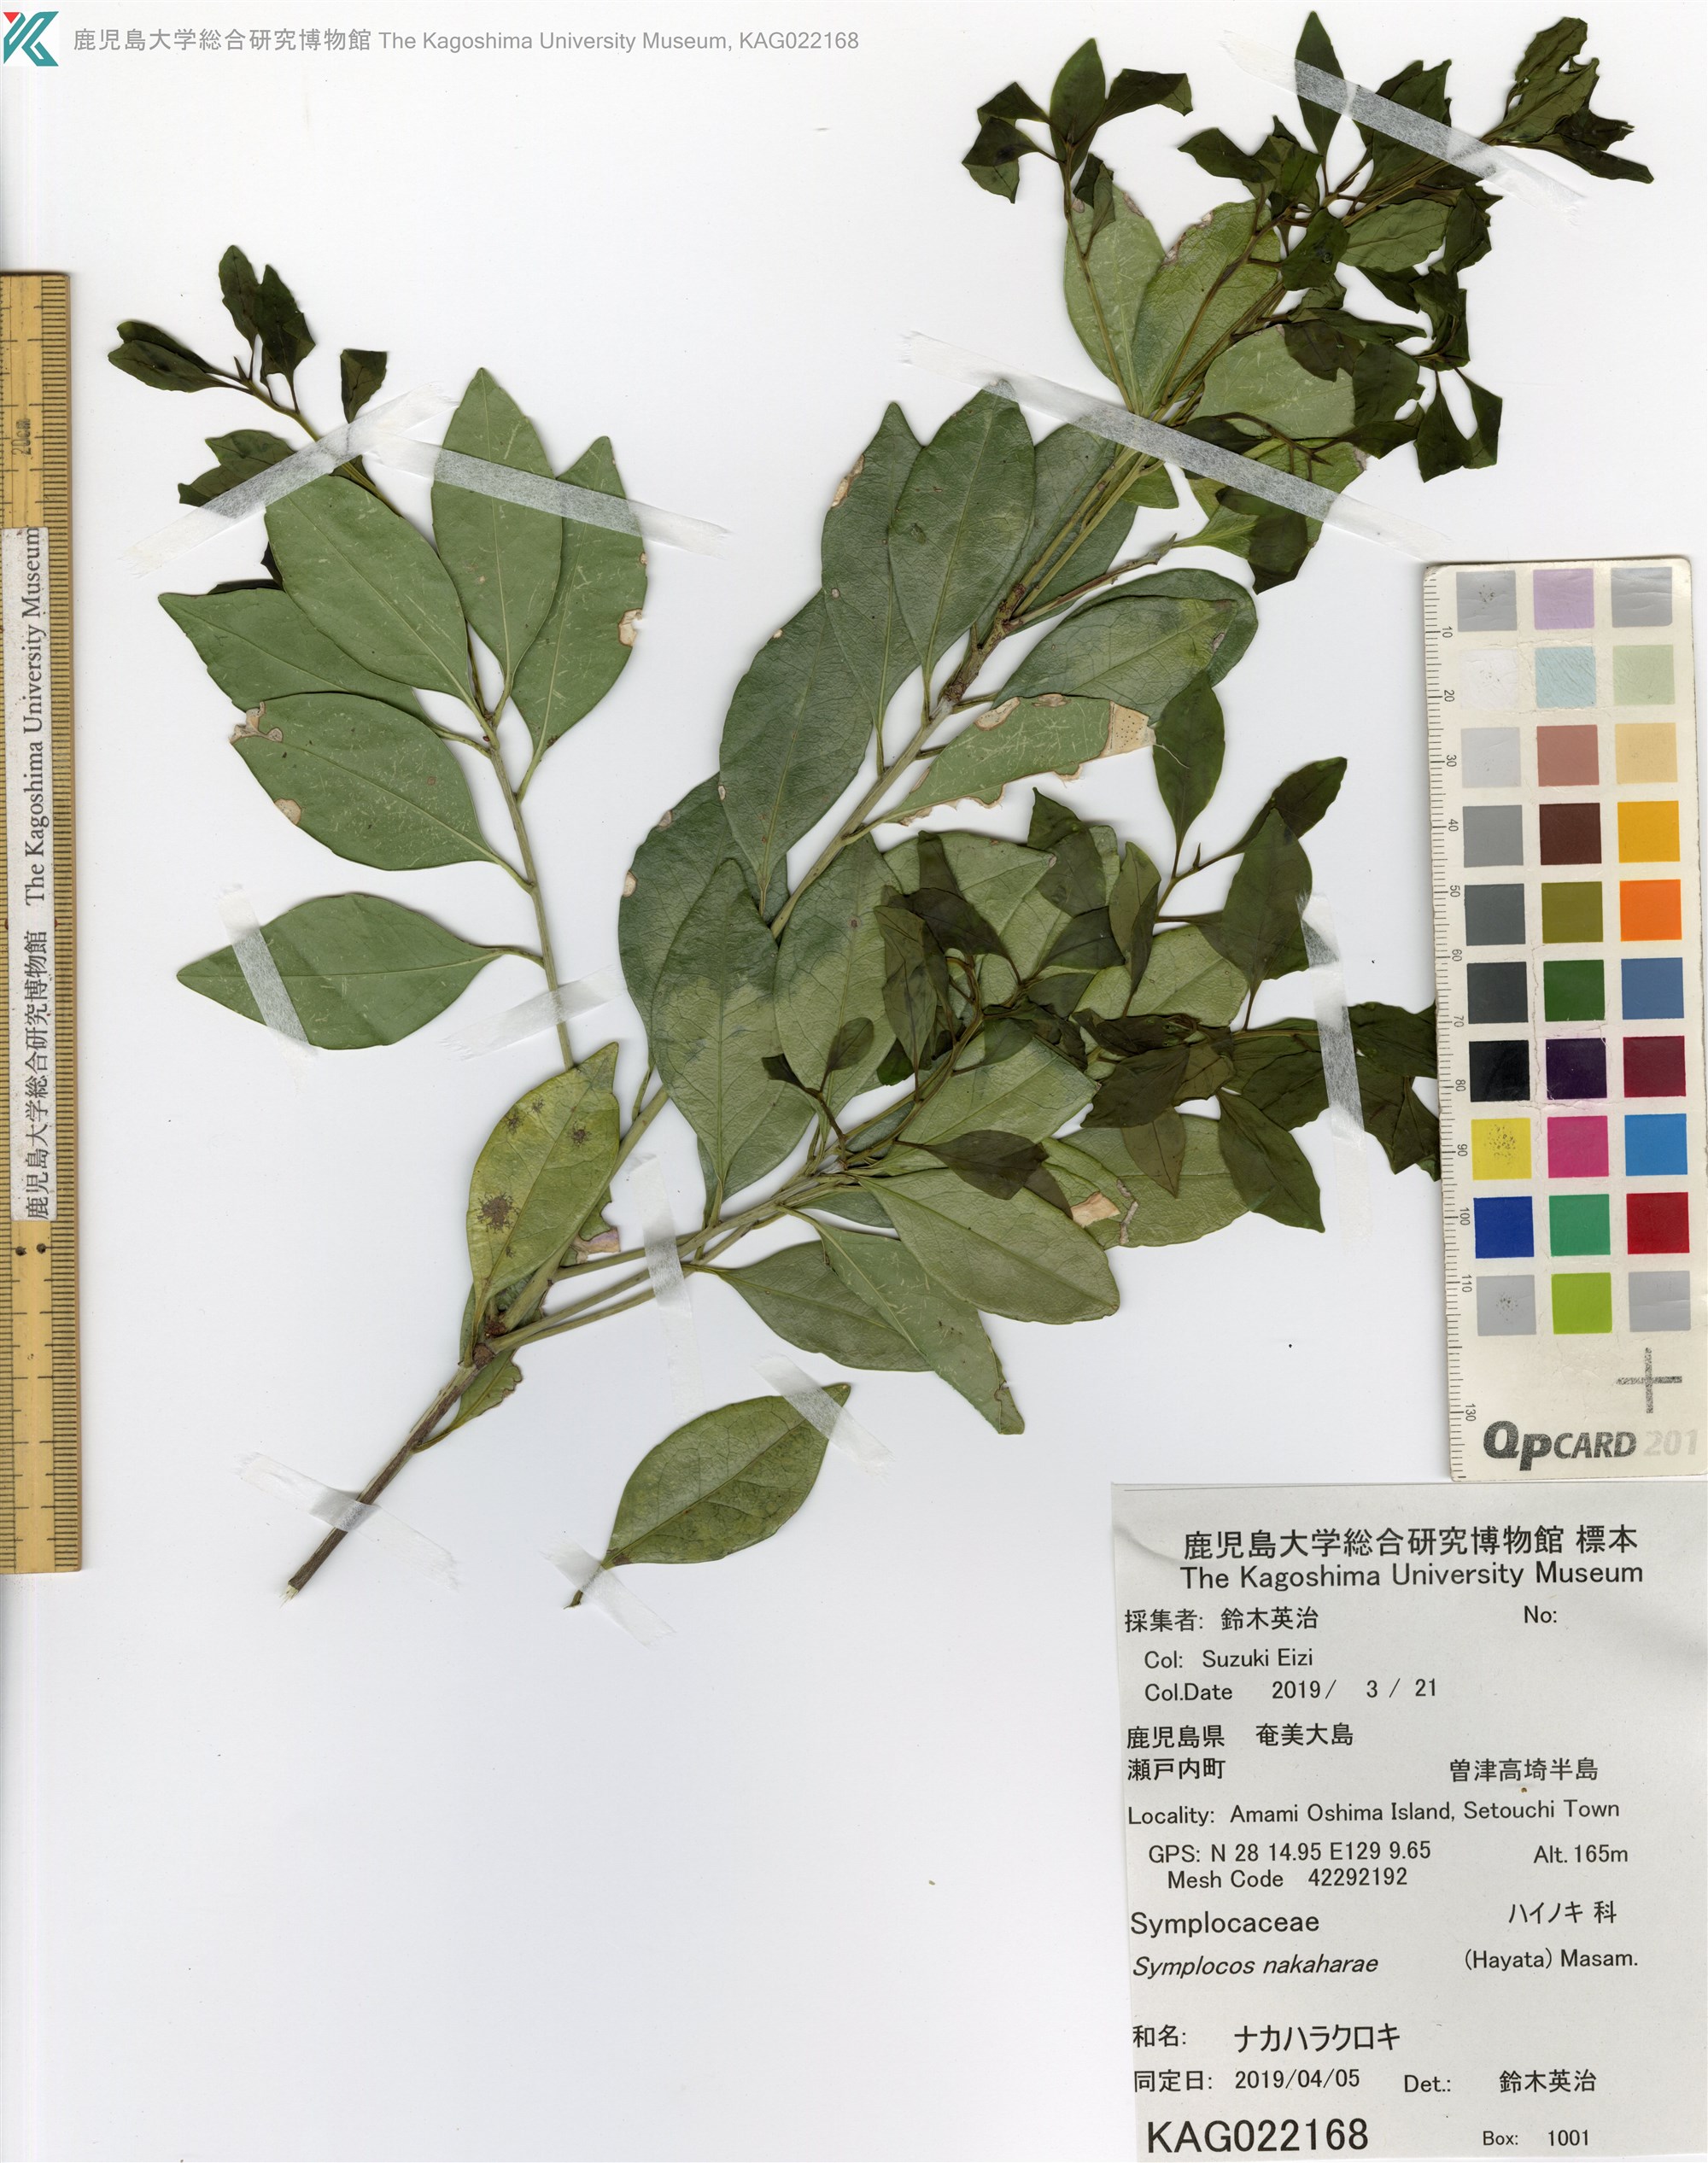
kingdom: Plantae
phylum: Tracheophyta
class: Magnoliopsida
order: Ericales
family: Symplocaceae
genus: Symplocos
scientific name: Symplocos nakaharae
